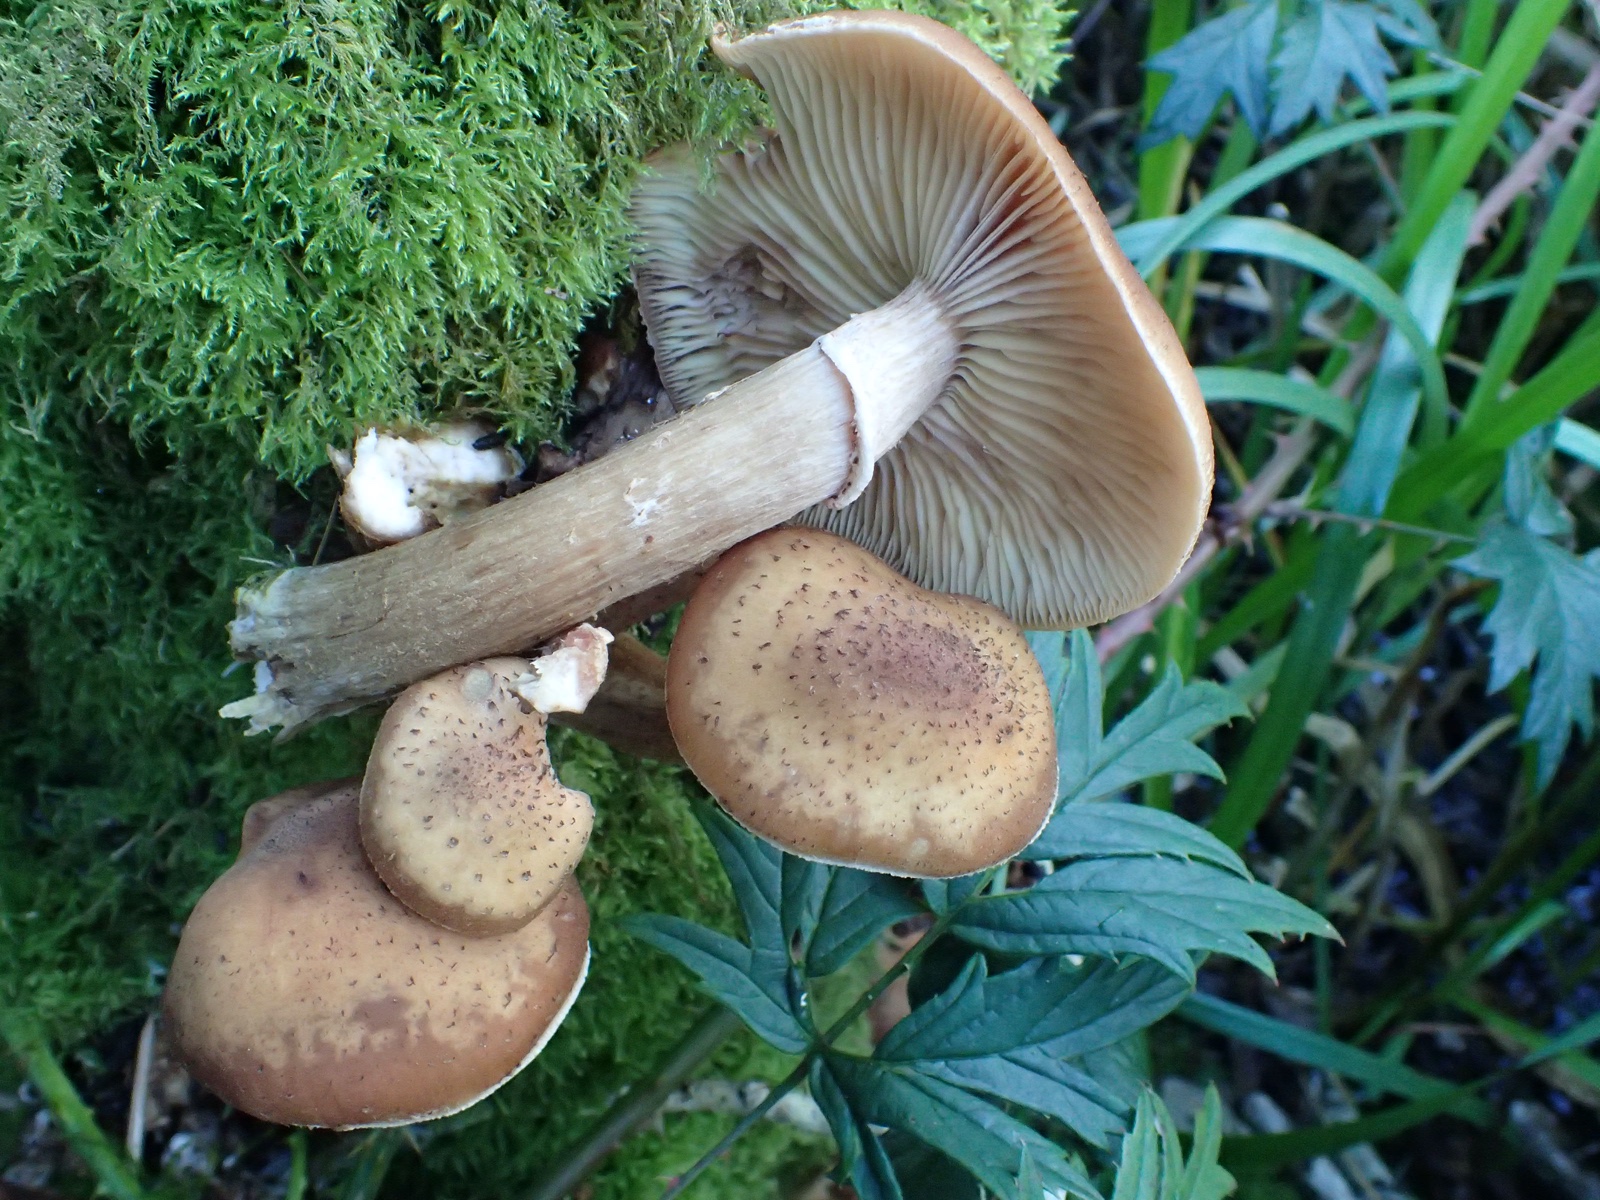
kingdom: Fungi
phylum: Basidiomycota
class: Agaricomycetes
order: Agaricales
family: Physalacriaceae
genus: Armillaria
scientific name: Armillaria
